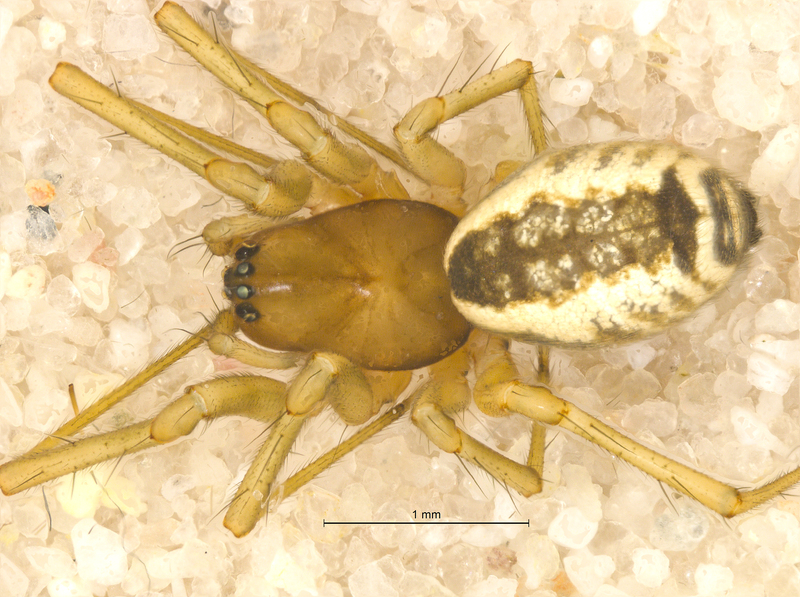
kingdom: Animalia
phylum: Arthropoda
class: Arachnida
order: Araneae
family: Linyphiidae
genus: Frontinellina
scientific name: Frontinellina frutetorum
